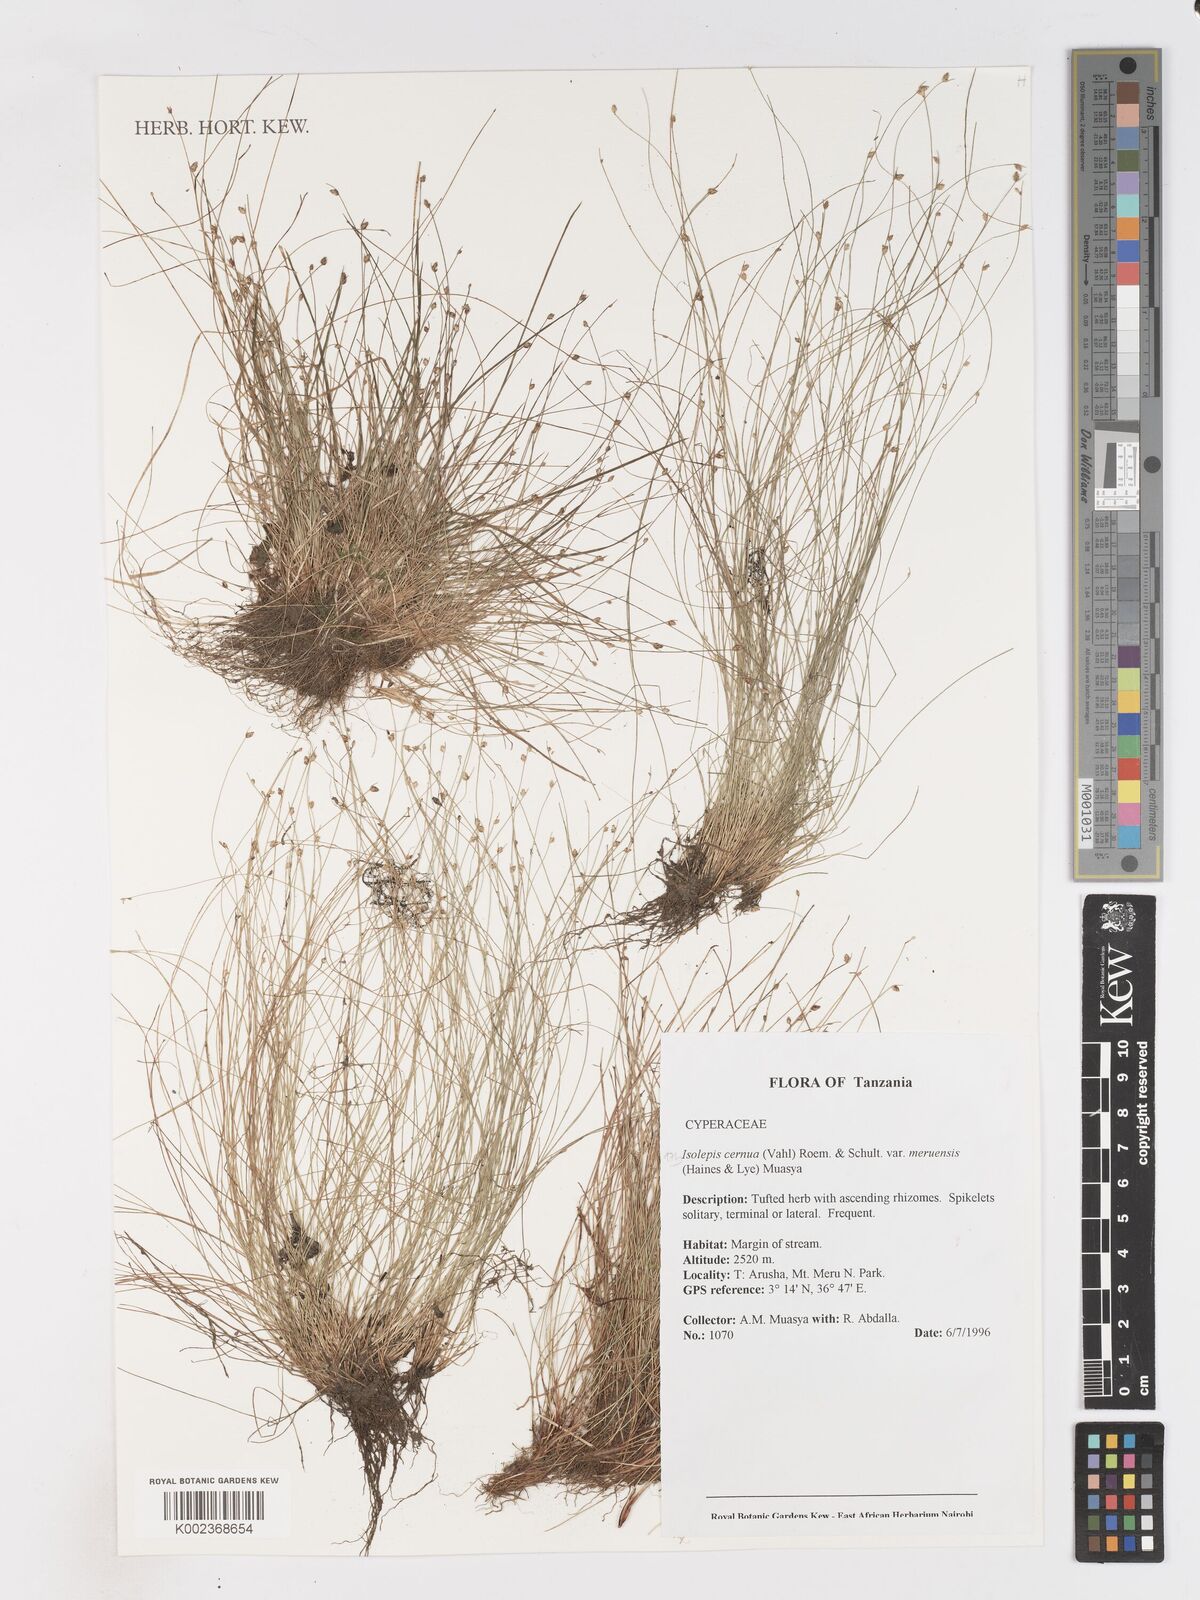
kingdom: Plantae
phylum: Tracheophyta
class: Liliopsida
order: Poales
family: Cyperaceae
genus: Isolepis
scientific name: Isolepis cernua
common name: Slender club-rush
